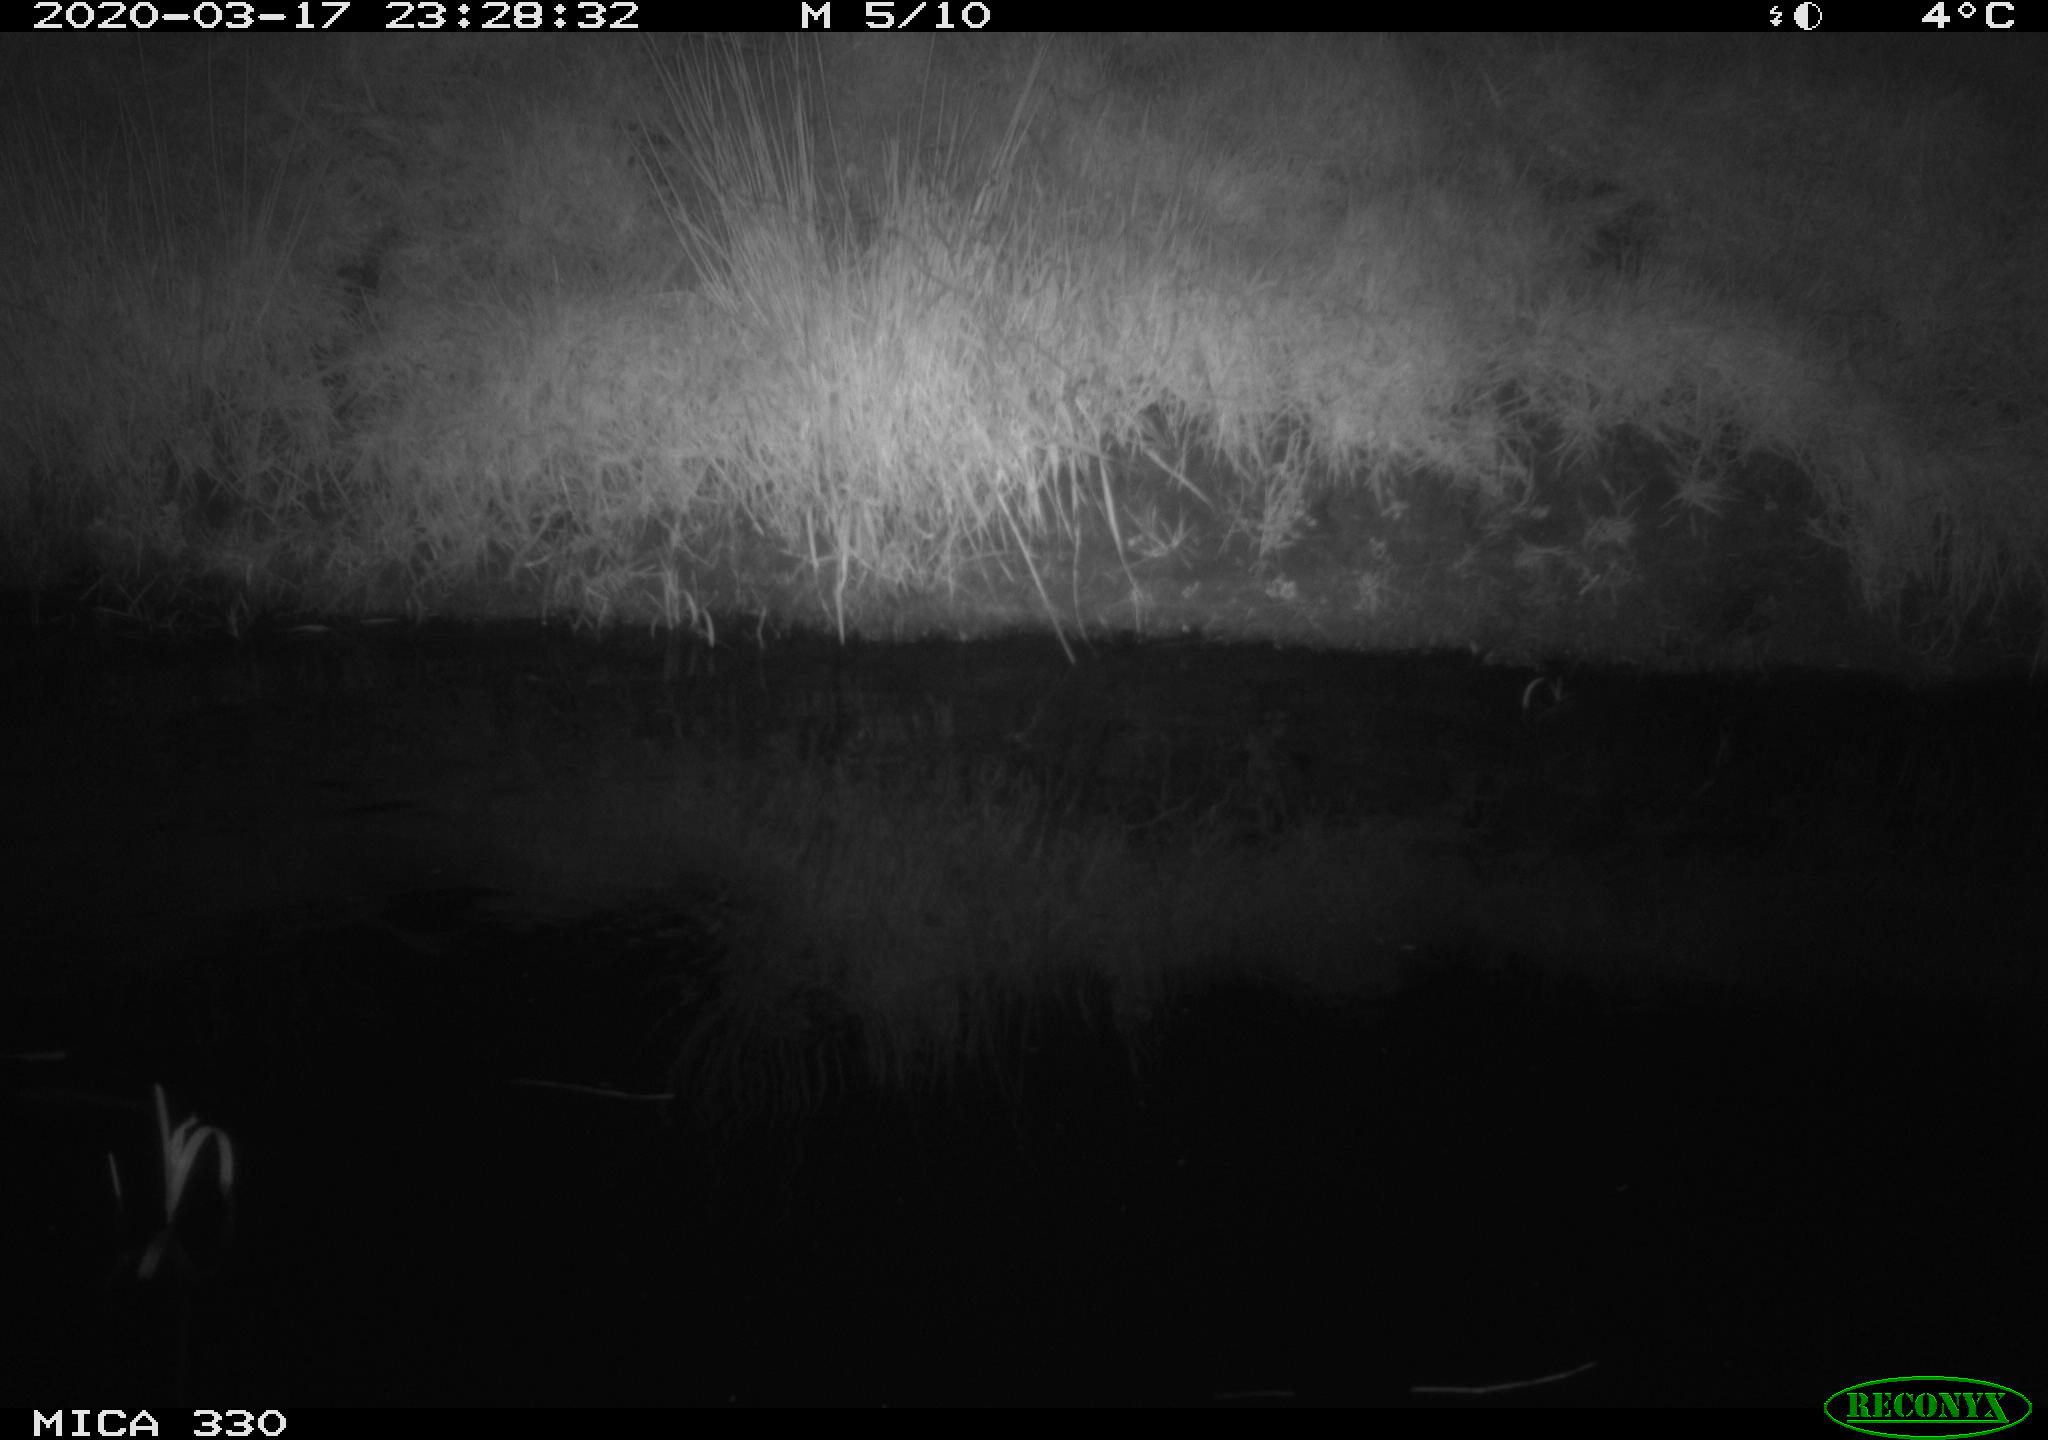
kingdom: Animalia
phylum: Chordata
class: Aves
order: Anseriformes
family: Anatidae
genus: Anas
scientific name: Anas platyrhynchos
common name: Mallard
